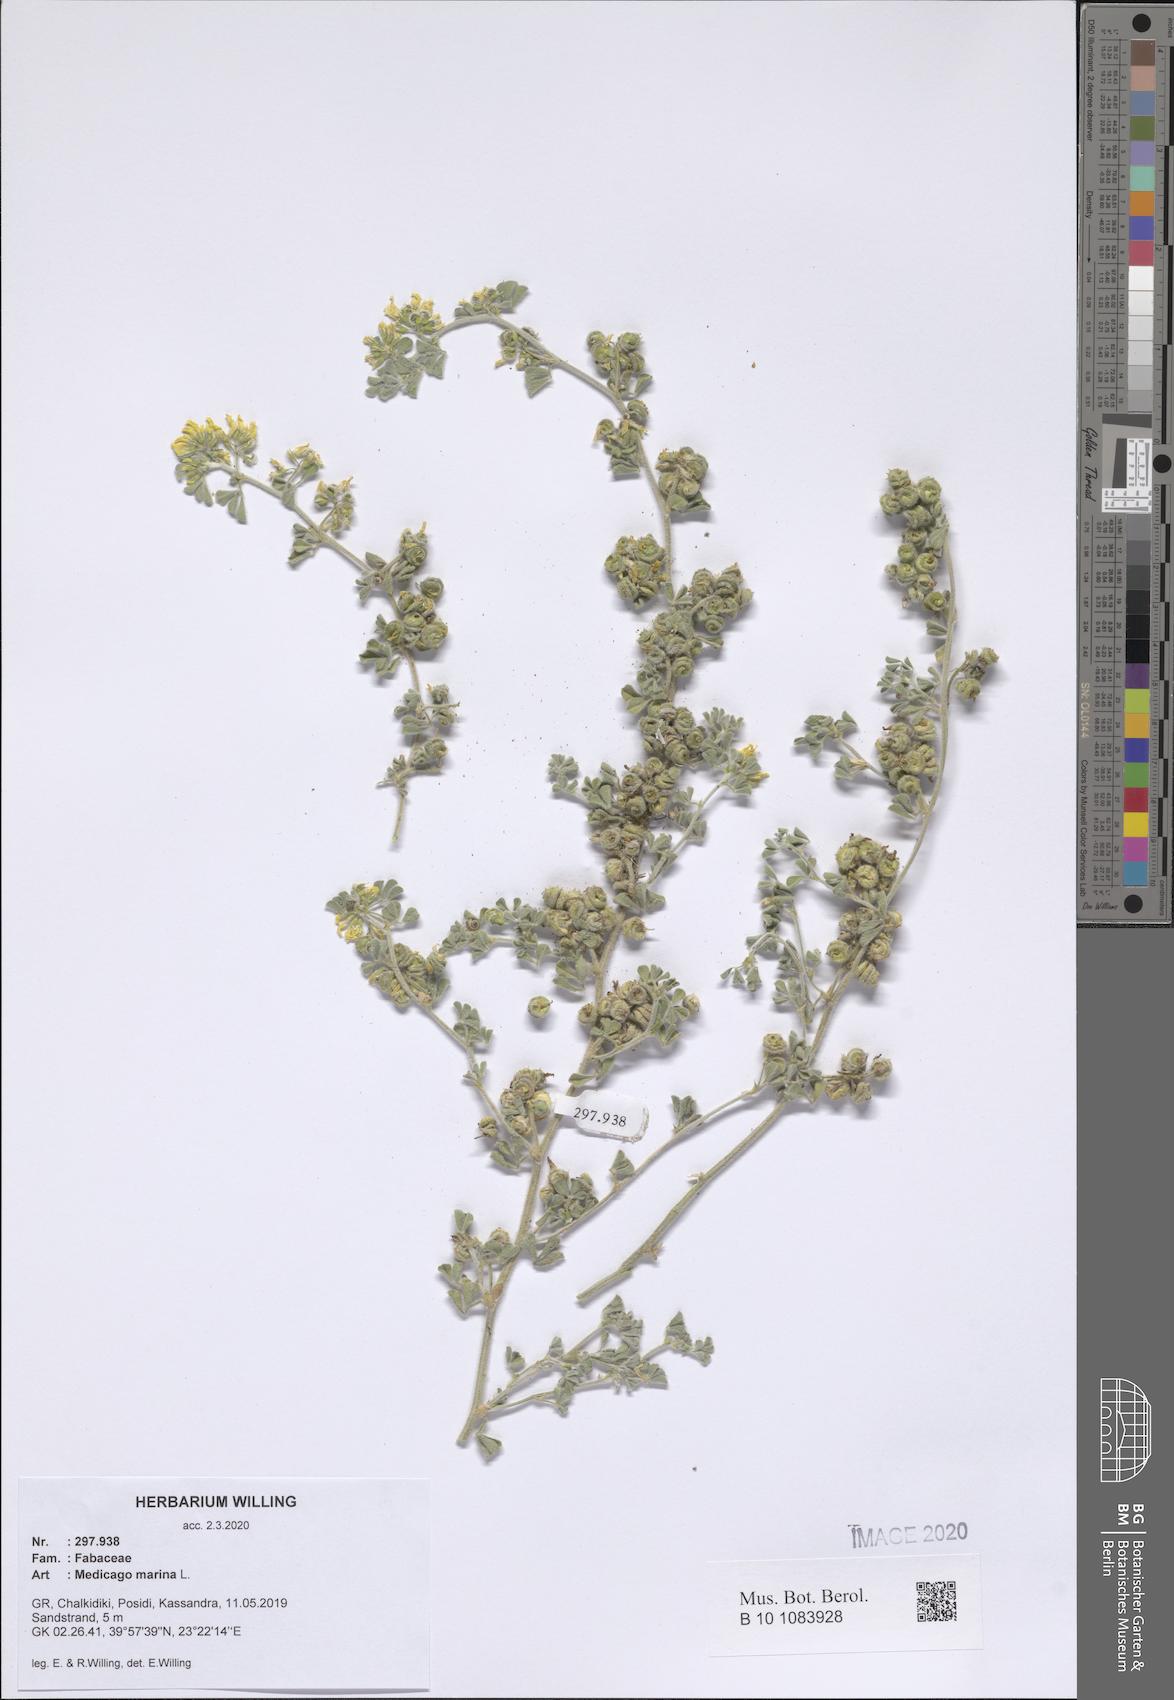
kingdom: Plantae
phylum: Tracheophyta
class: Magnoliopsida
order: Fabales
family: Fabaceae
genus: Medicago
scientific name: Medicago marina
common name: Sea medick
